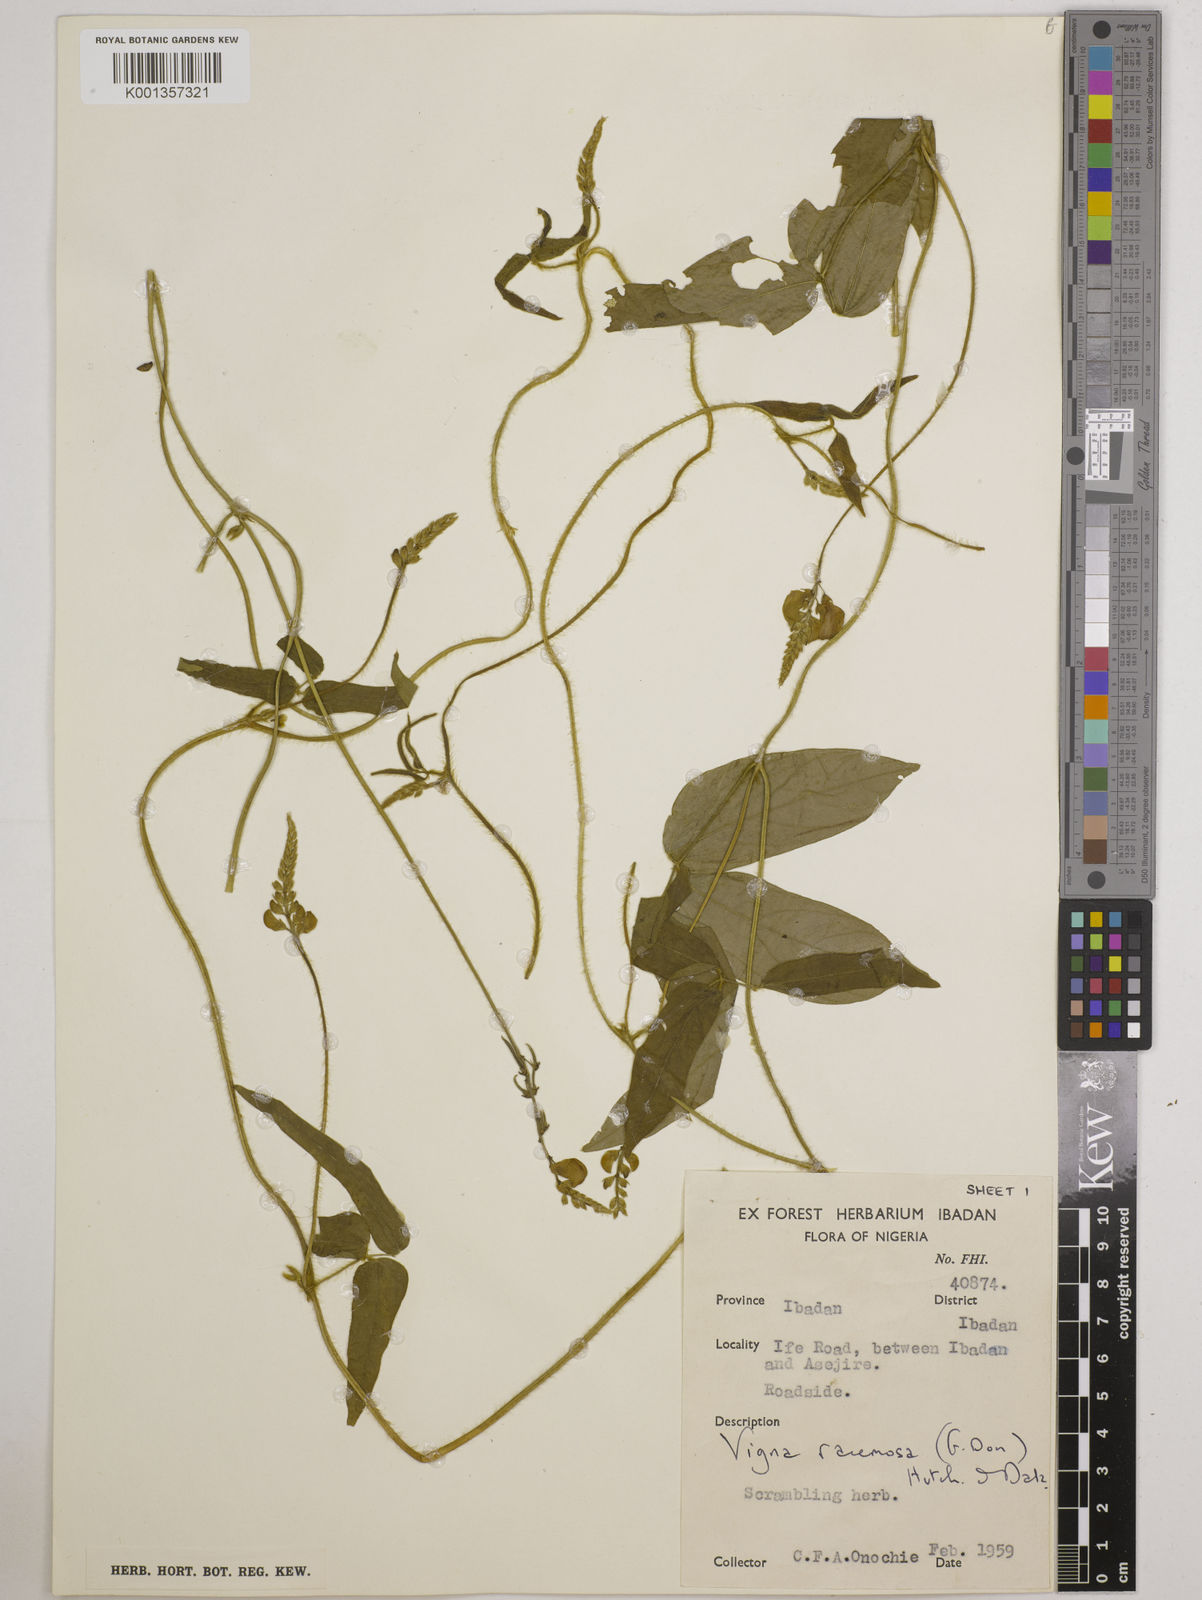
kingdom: Plantae
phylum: Tracheophyta
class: Magnoliopsida
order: Fabales
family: Fabaceae
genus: Vigna
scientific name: Vigna racemosa
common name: Beans not eaten
